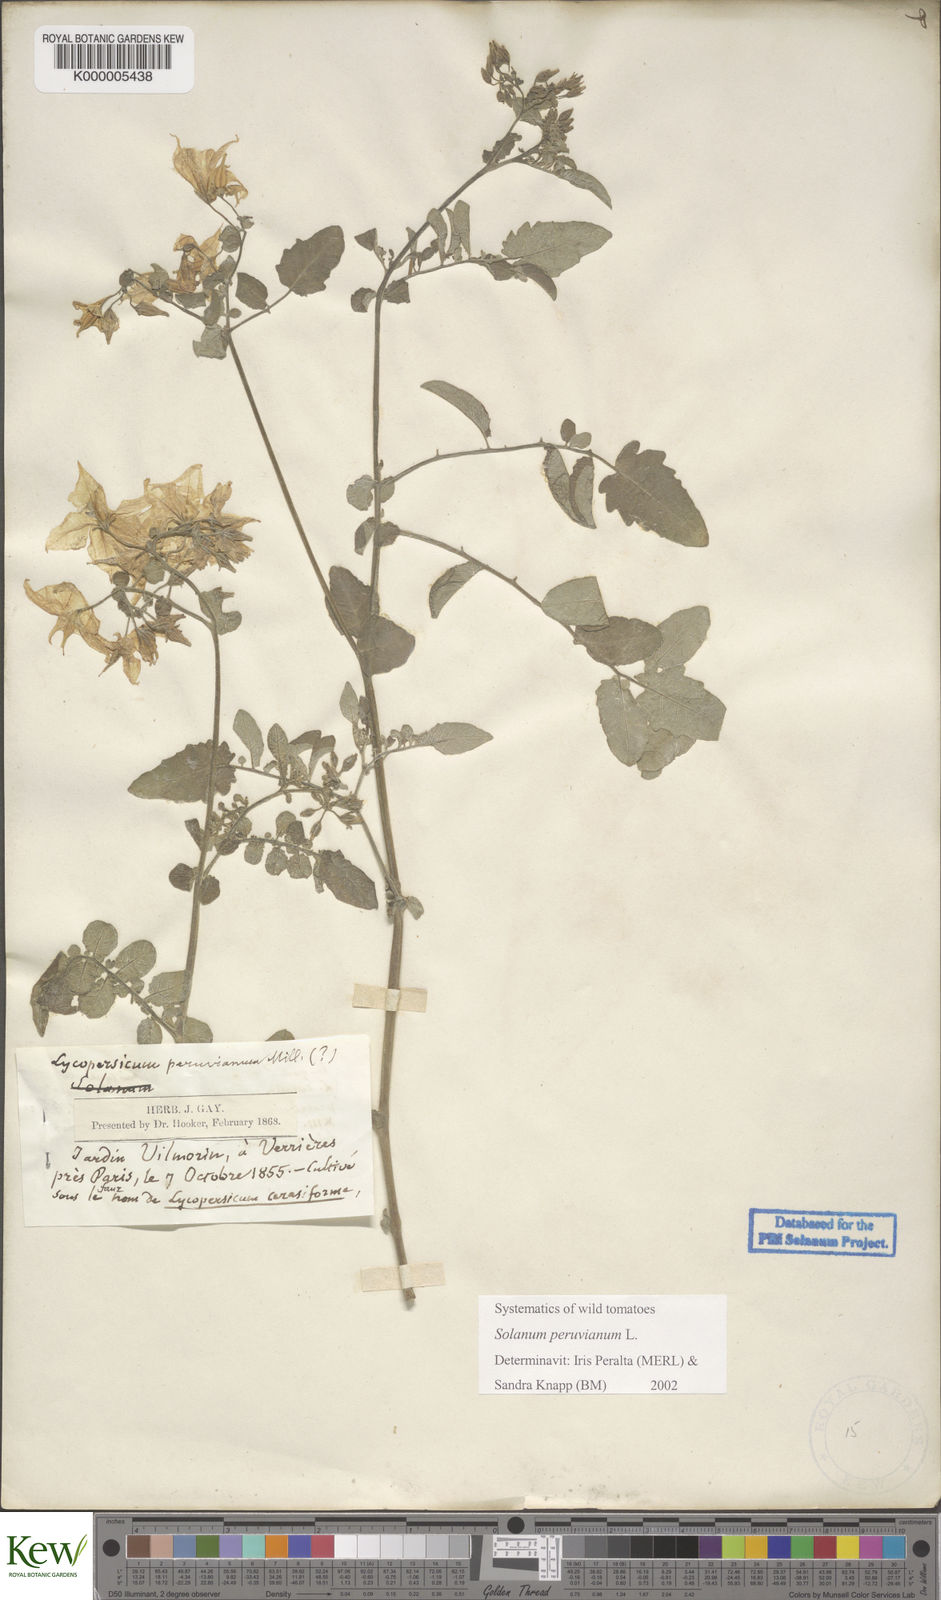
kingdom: Plantae
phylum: Tracheophyta
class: Magnoliopsida
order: Solanales
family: Solanaceae
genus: Solanum
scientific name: Solanum peruvianum
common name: Peruvian nightshade
